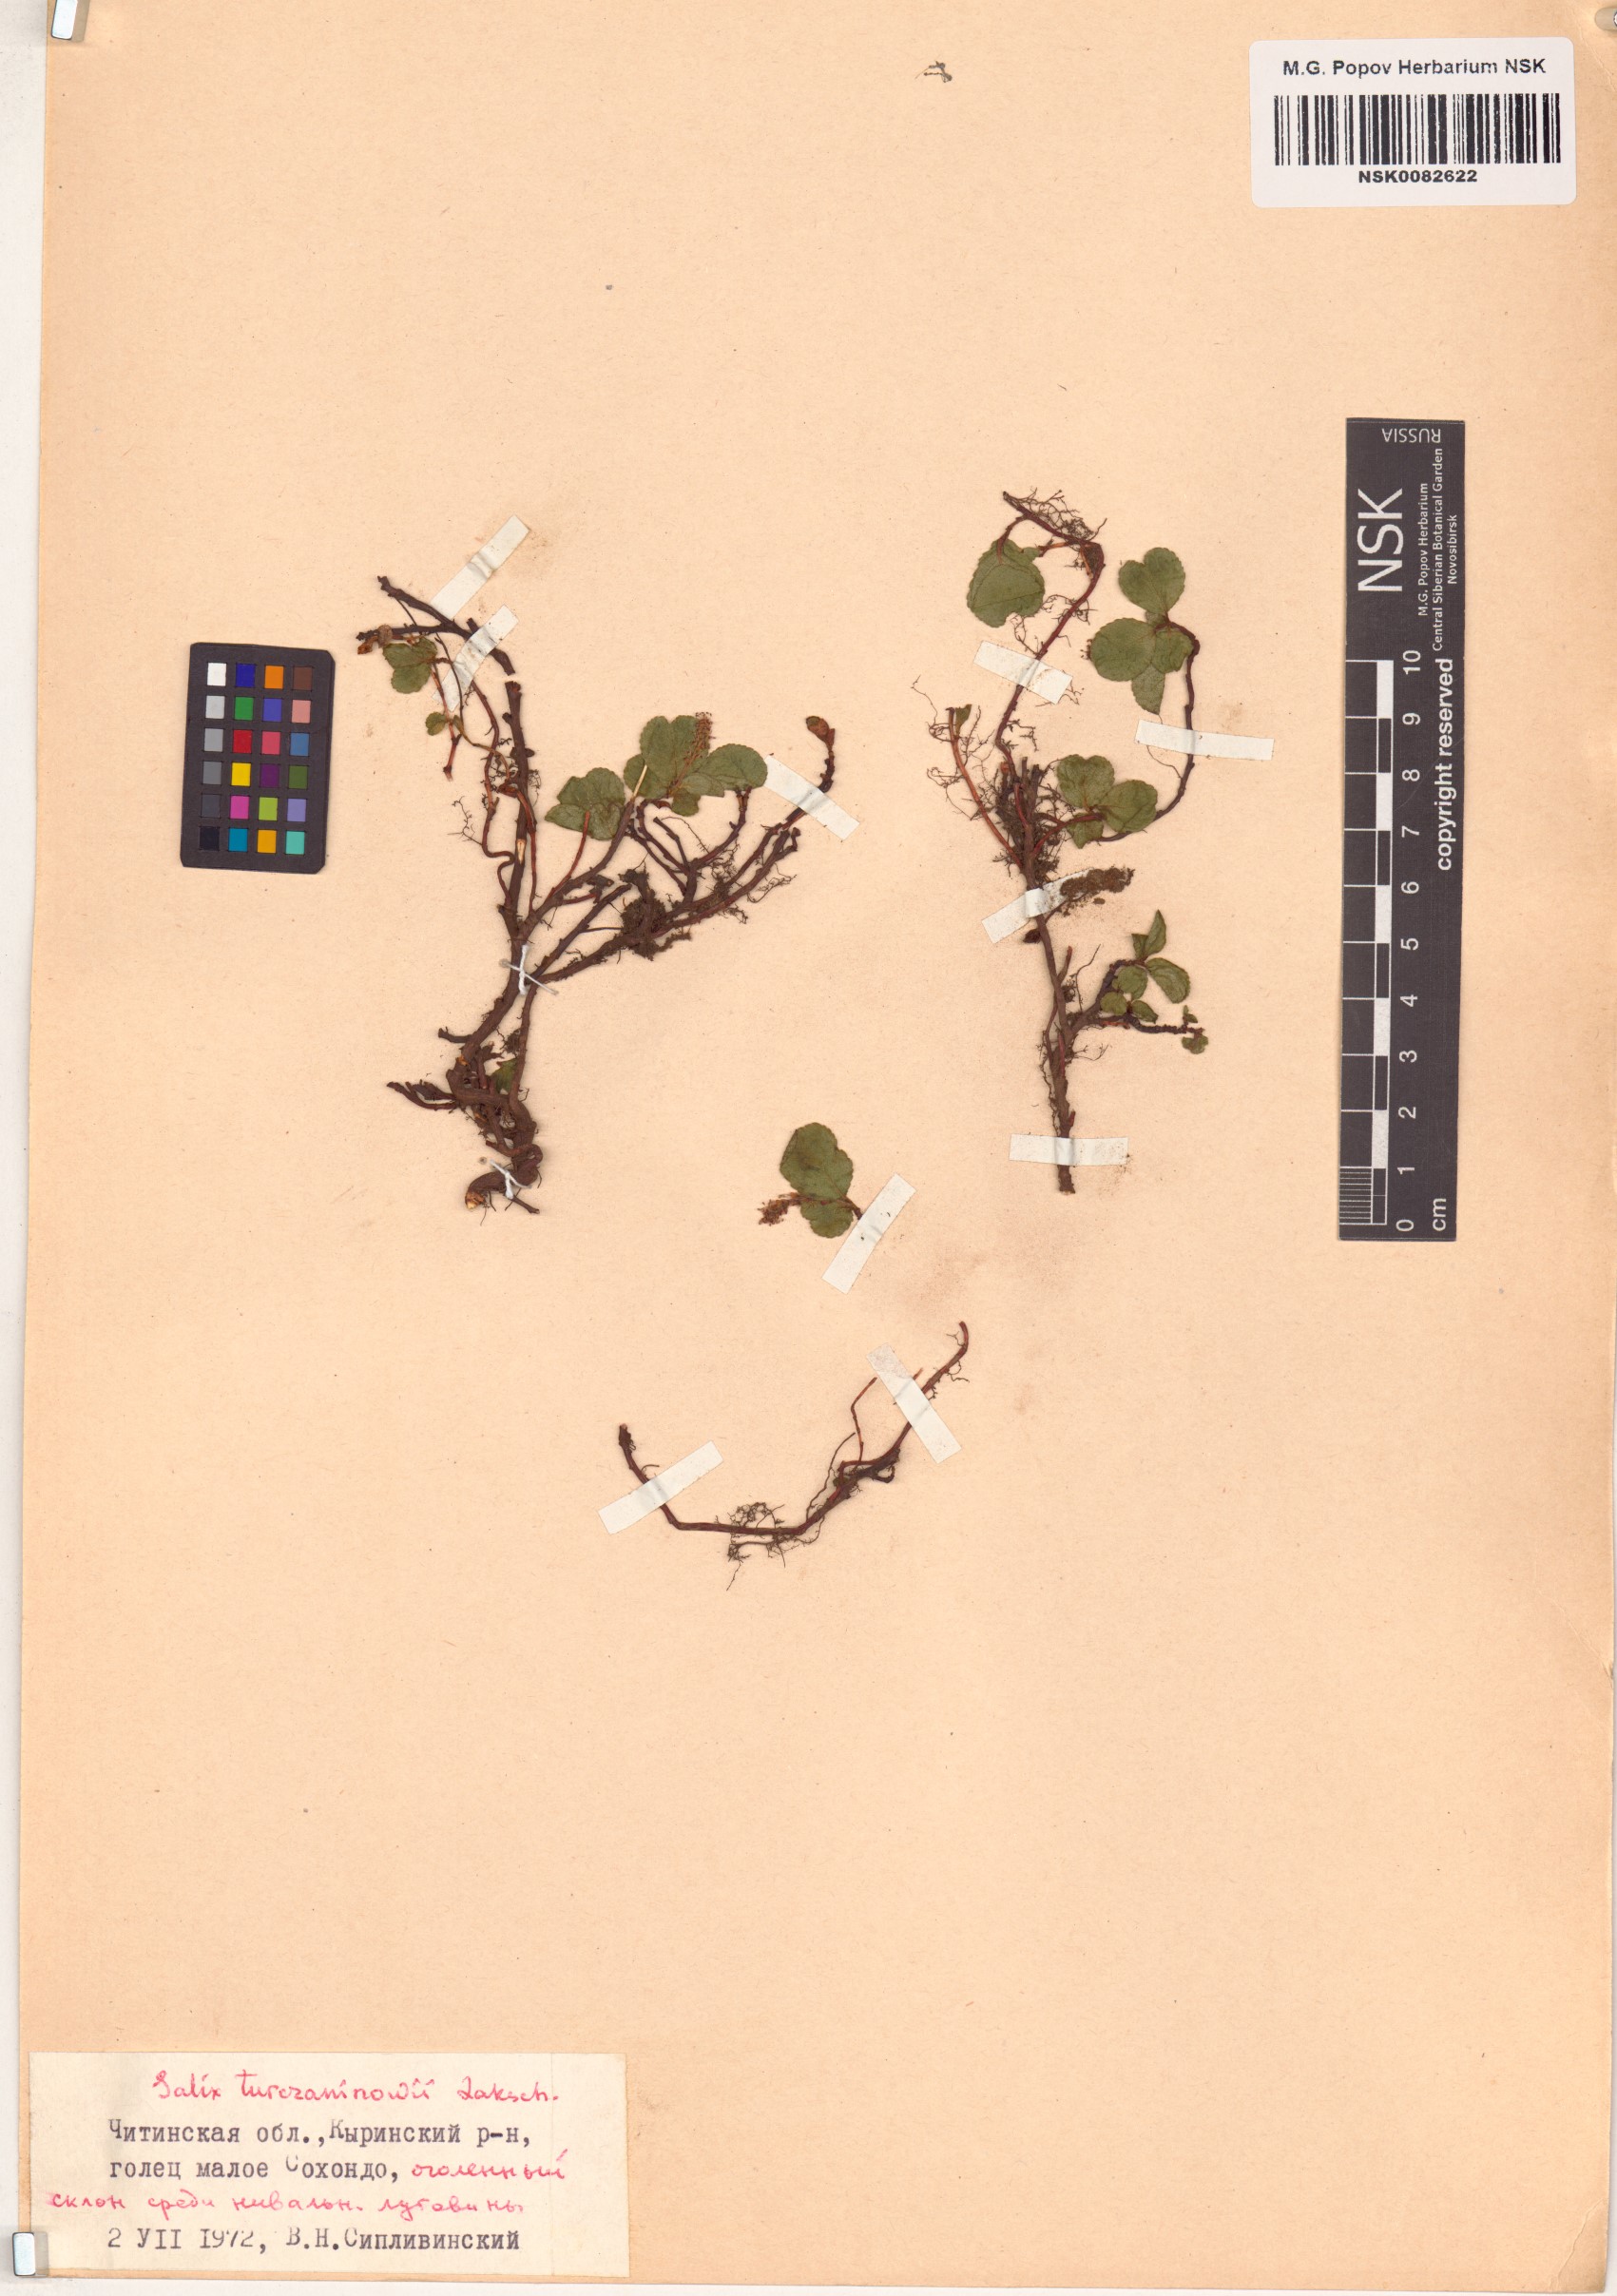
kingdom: Plantae
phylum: Tracheophyta
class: Magnoliopsida
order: Malpighiales
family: Salicaceae
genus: Salix
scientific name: Salix turczaninowii
